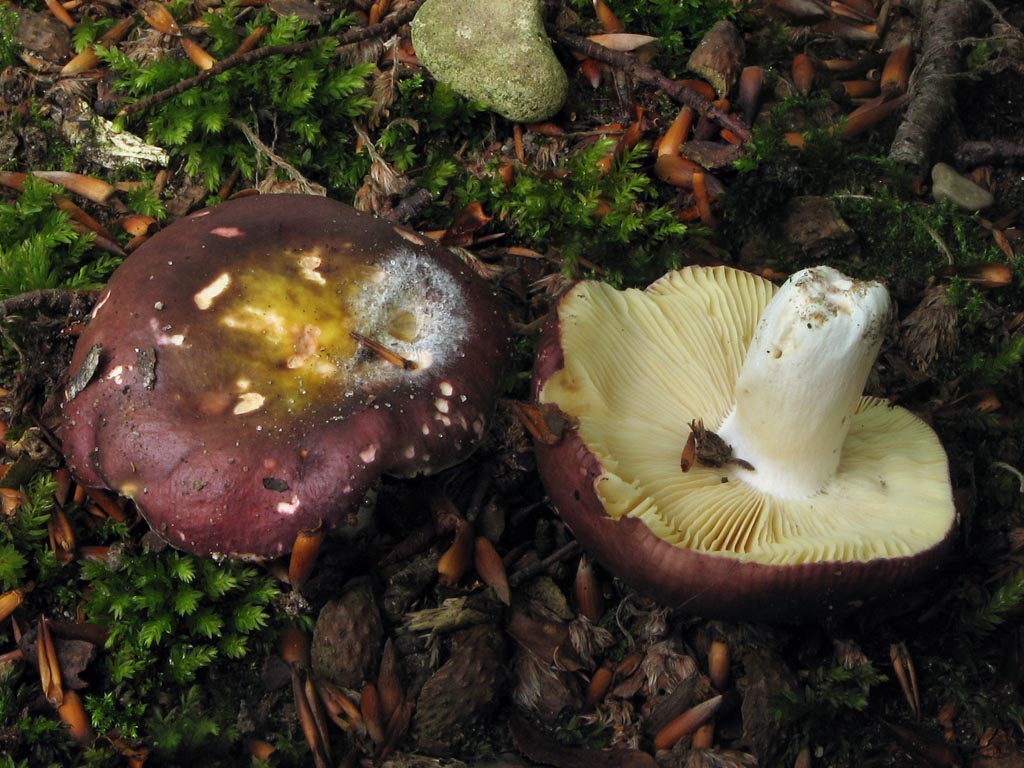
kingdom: Fungi
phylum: Basidiomycota
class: Agaricomycetes
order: Russulales
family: Russulaceae
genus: Russula
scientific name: Russula romellii
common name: romells skørhat
